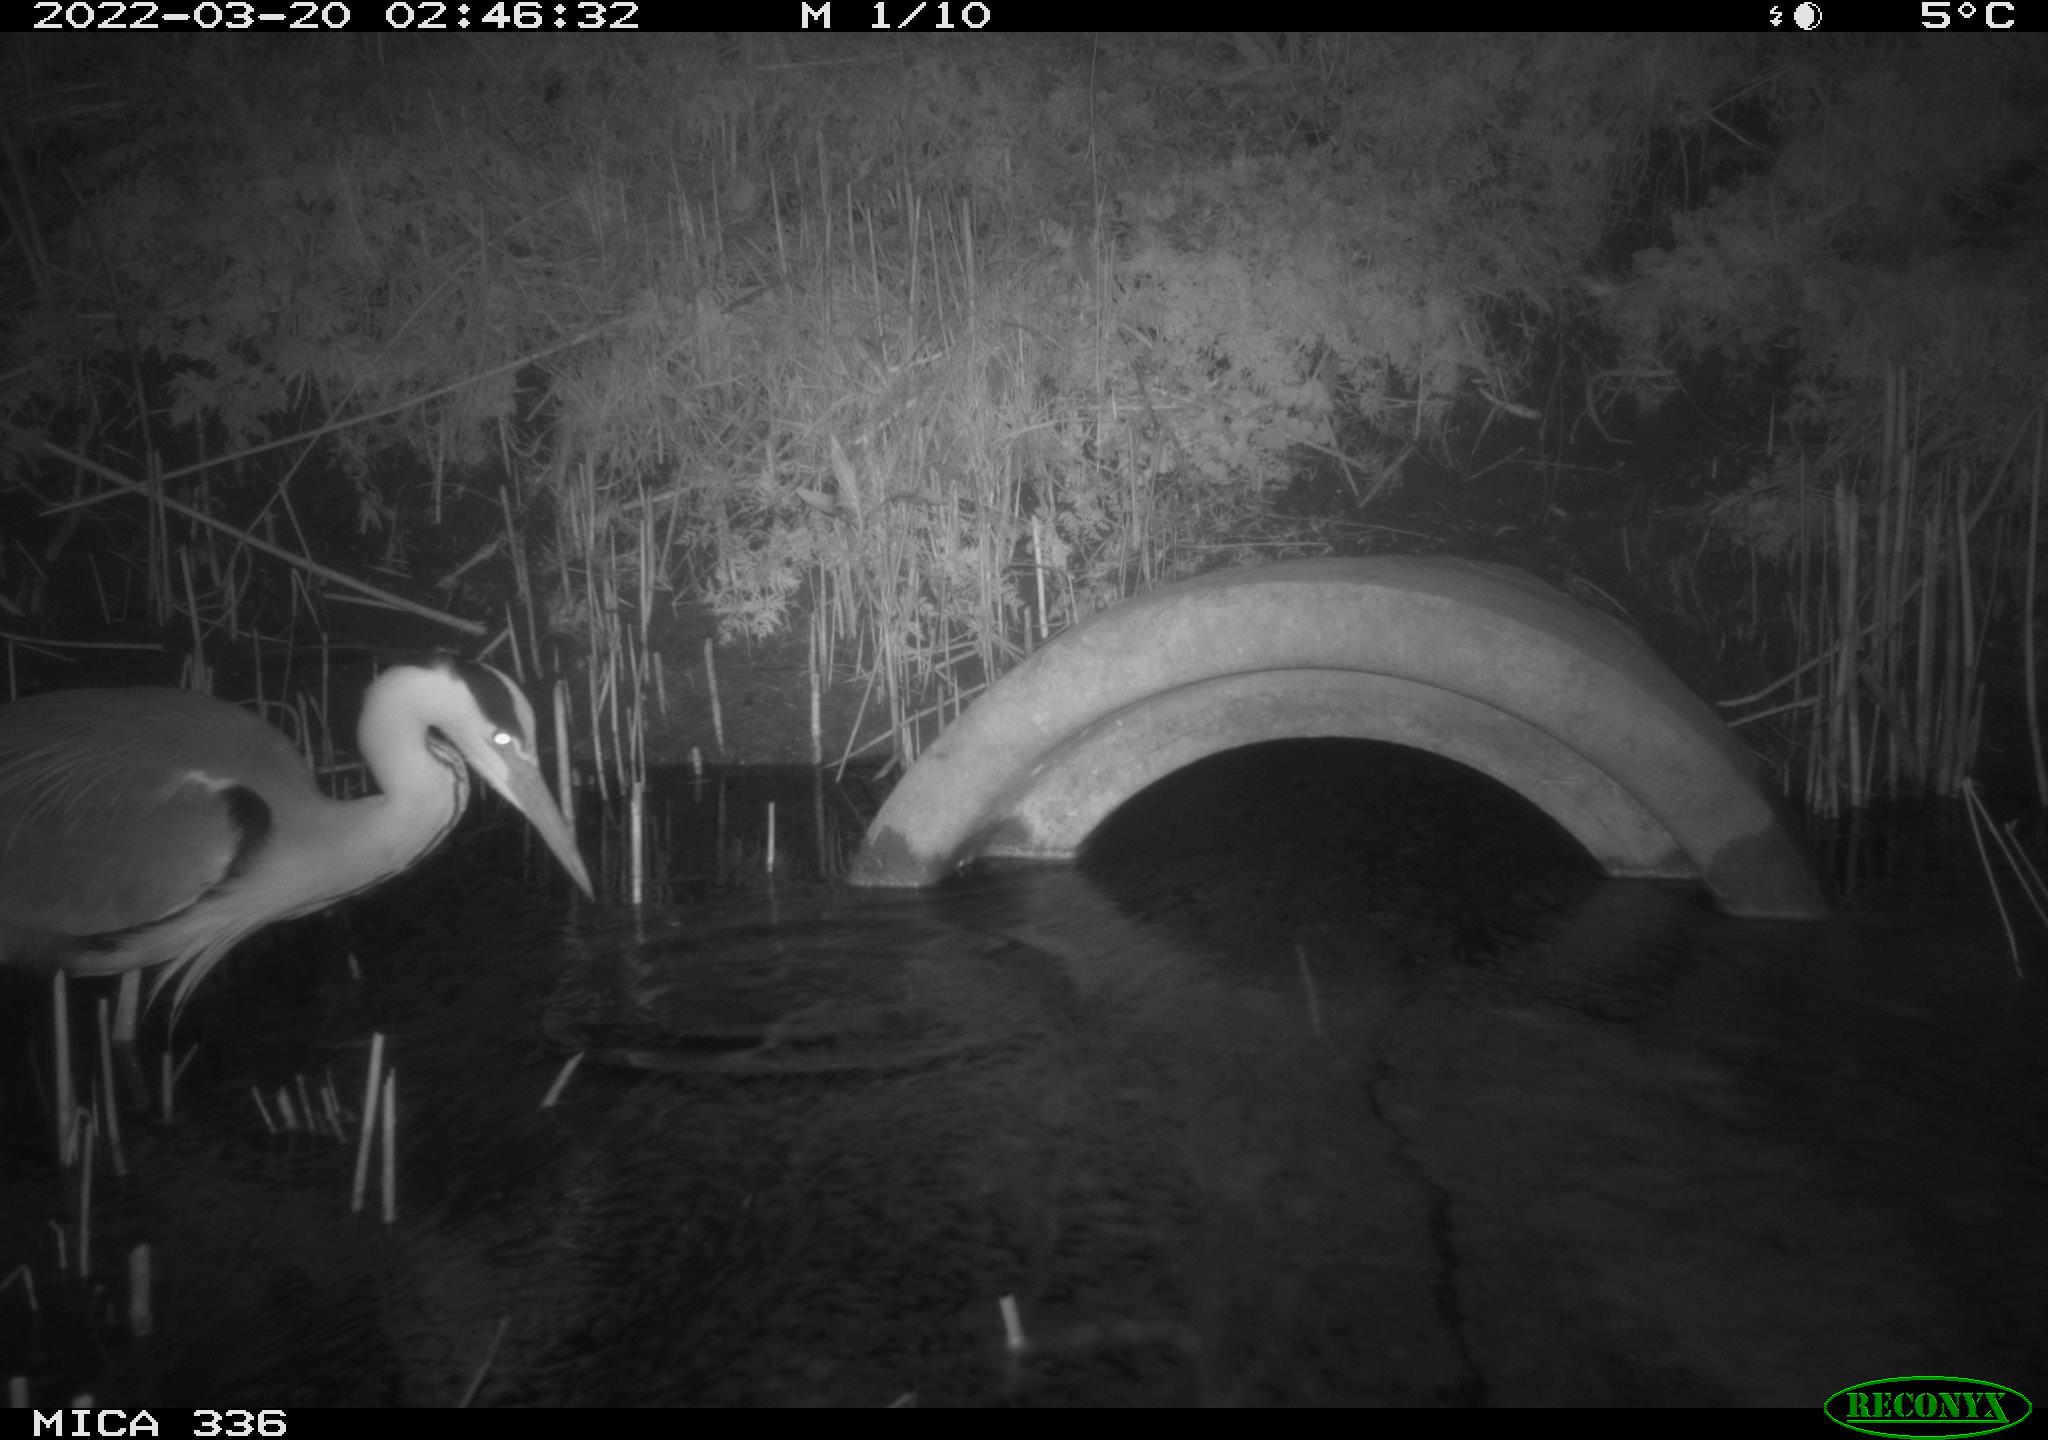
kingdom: Animalia
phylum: Chordata
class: Aves
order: Pelecaniformes
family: Ardeidae
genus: Ardea
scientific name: Ardea cinerea
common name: Grey heron
